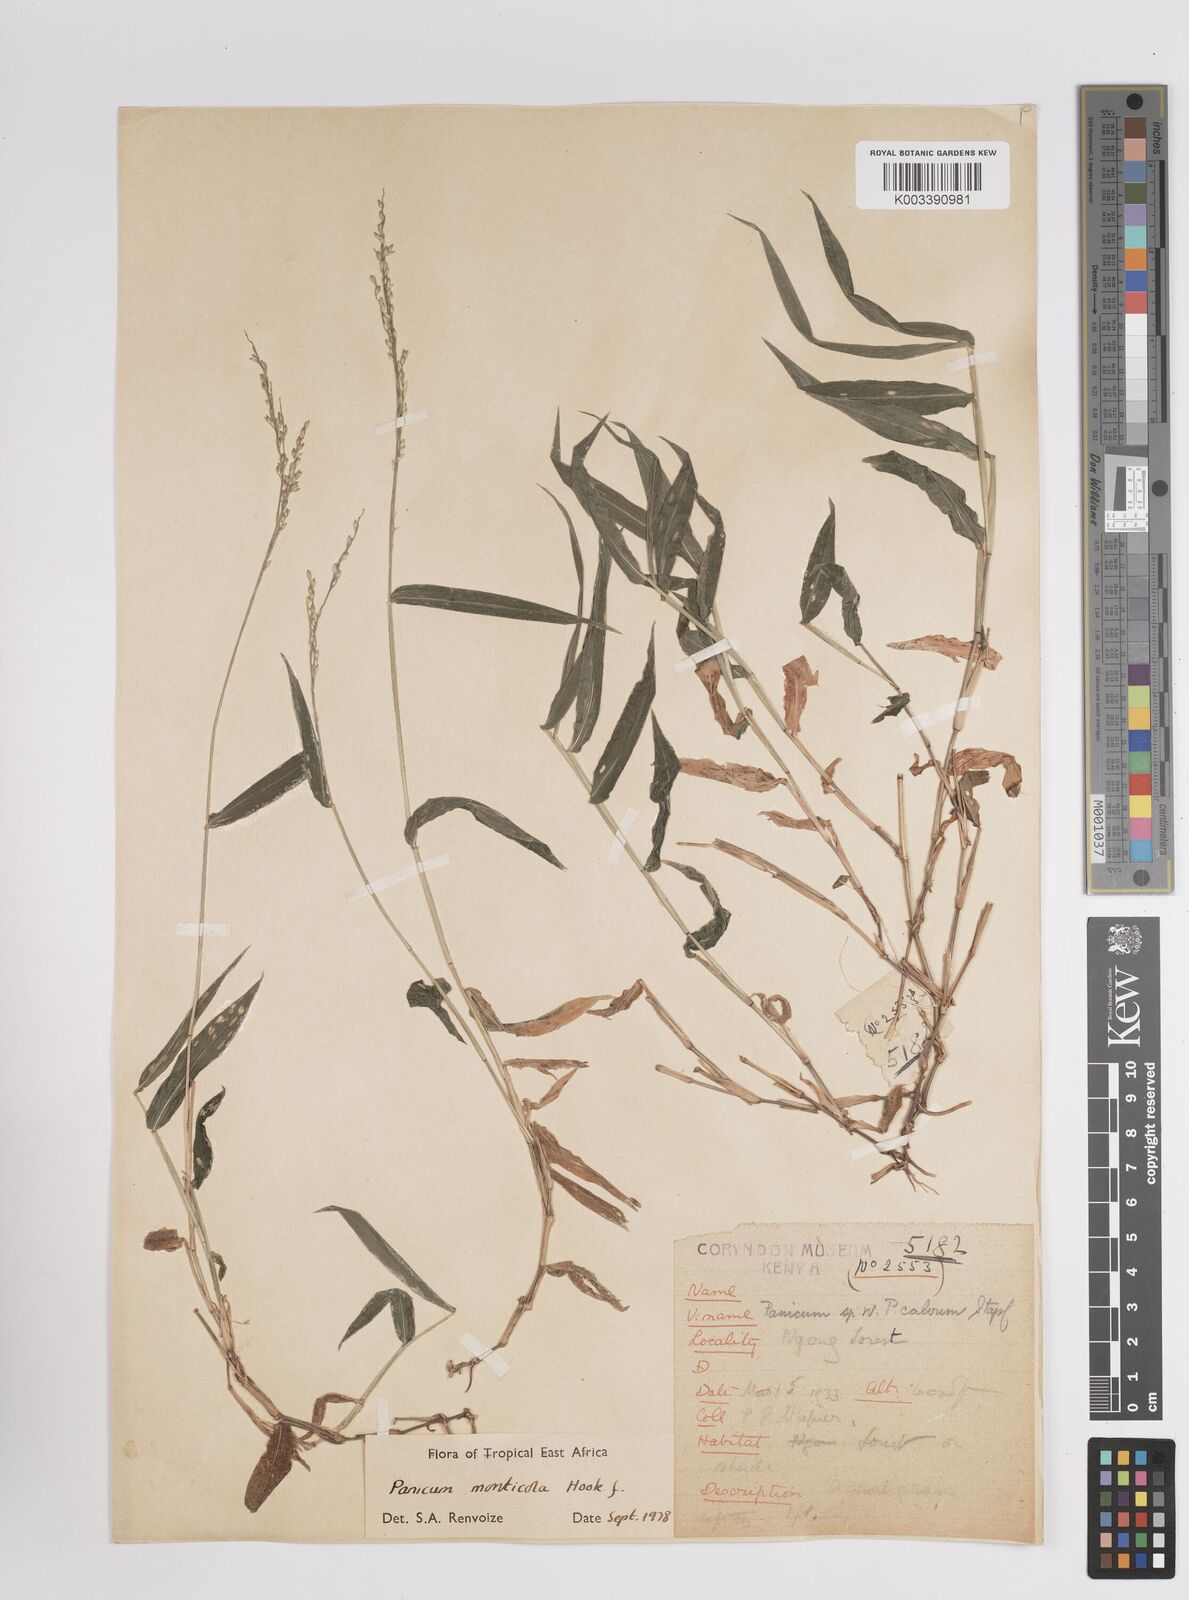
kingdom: Plantae
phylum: Tracheophyta
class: Liliopsida
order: Poales
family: Poaceae
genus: Panicum
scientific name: Panicum monticola
